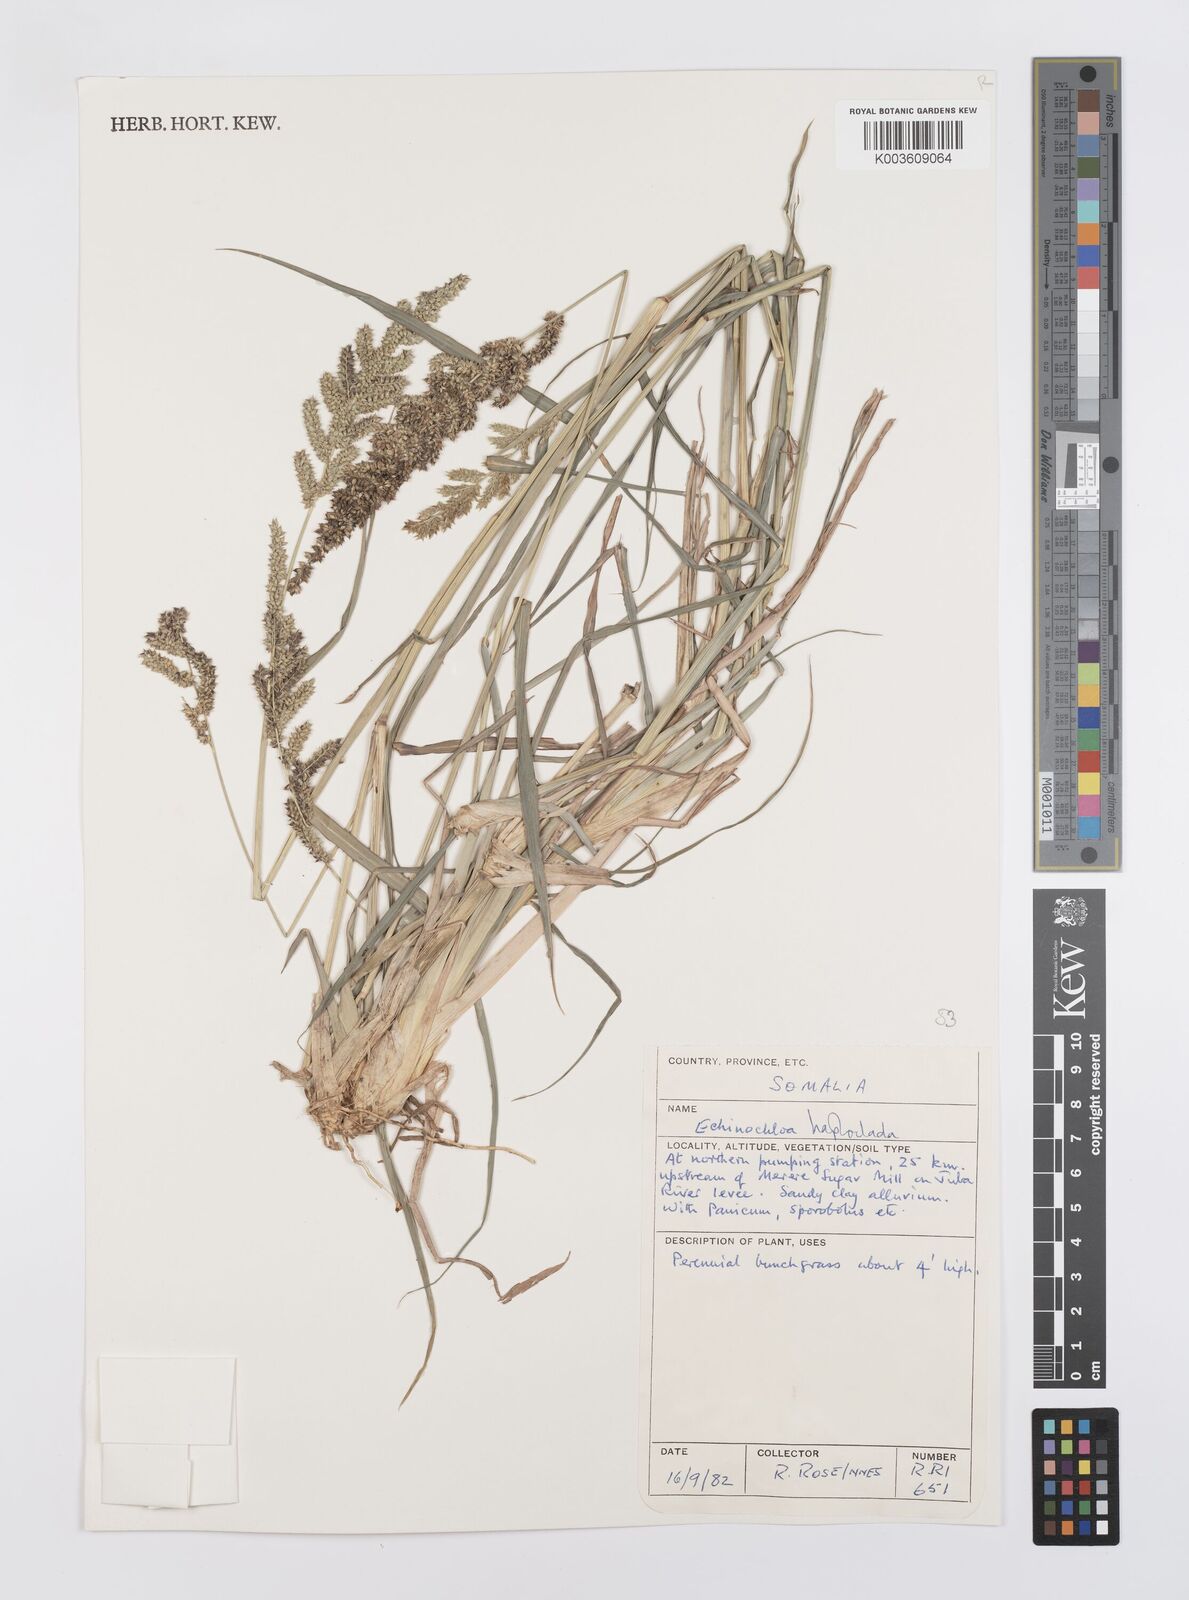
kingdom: Plantae
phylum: Tracheophyta
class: Liliopsida
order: Poales
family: Poaceae
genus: Echinochloa
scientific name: Echinochloa haploclada
